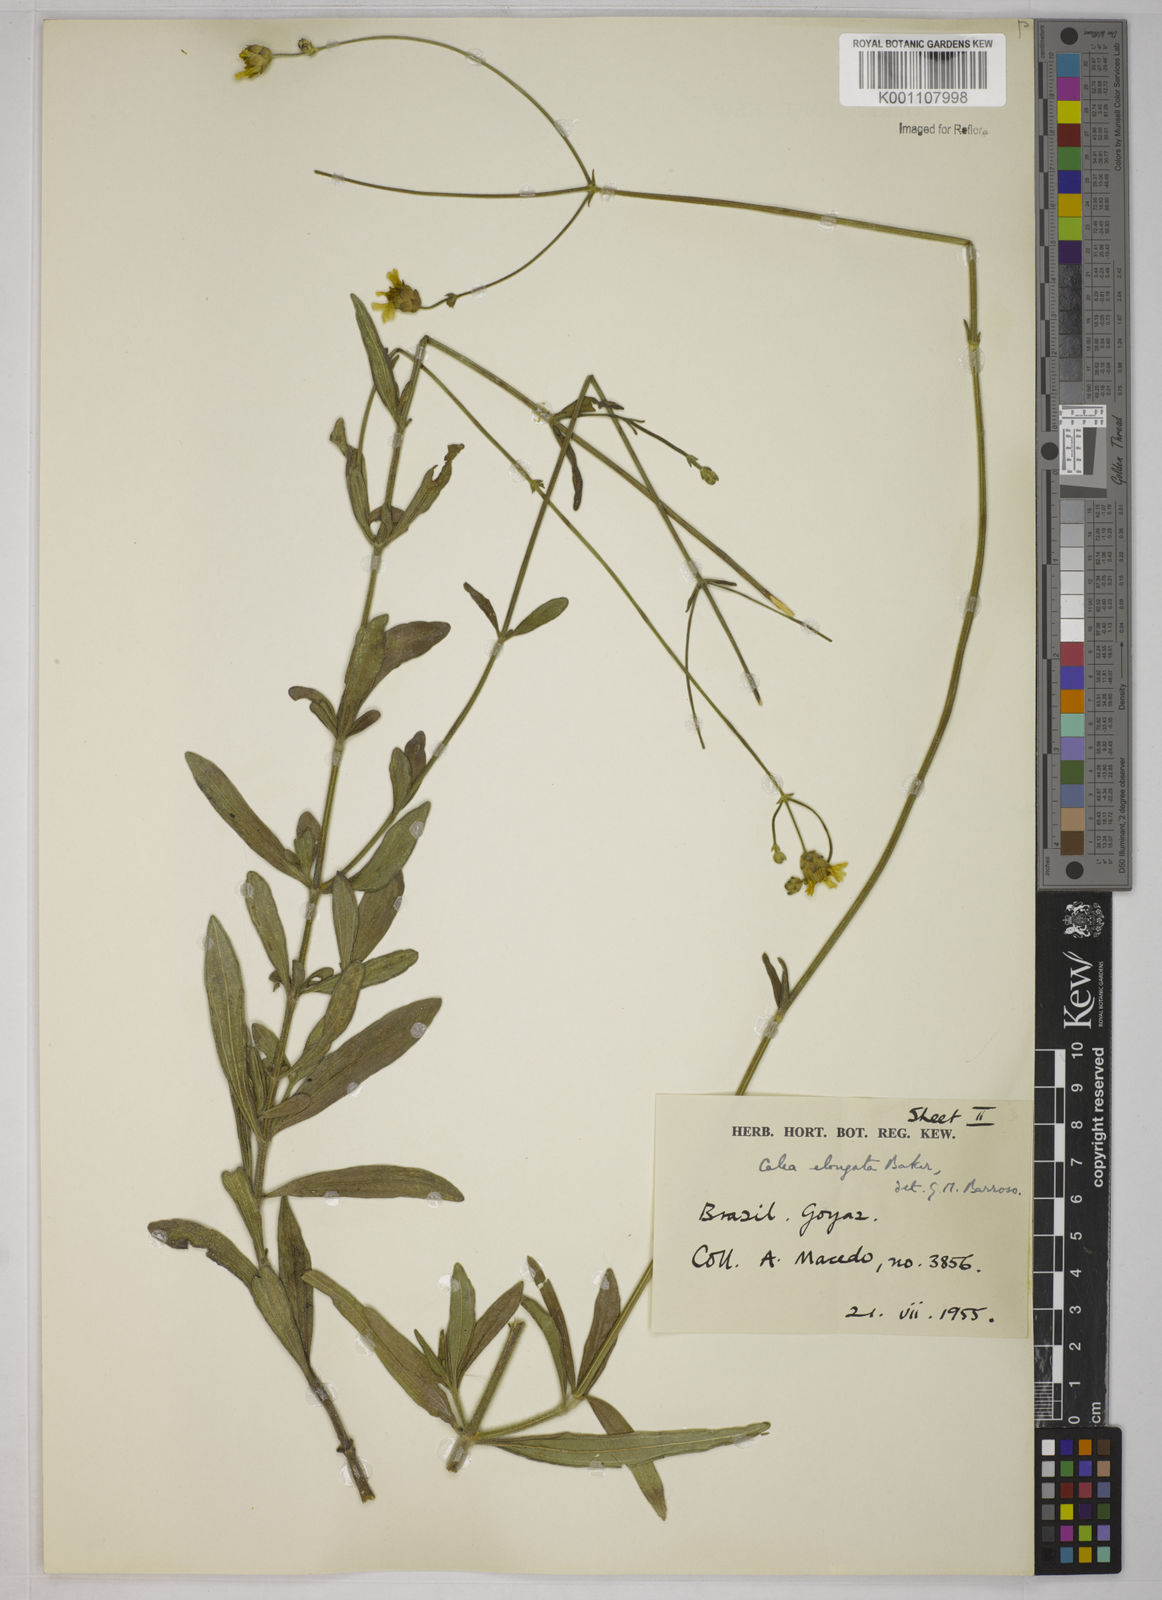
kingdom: Plantae
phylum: Tracheophyta
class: Magnoliopsida
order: Asterales
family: Asteraceae
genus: Calea
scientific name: Calea elongata
